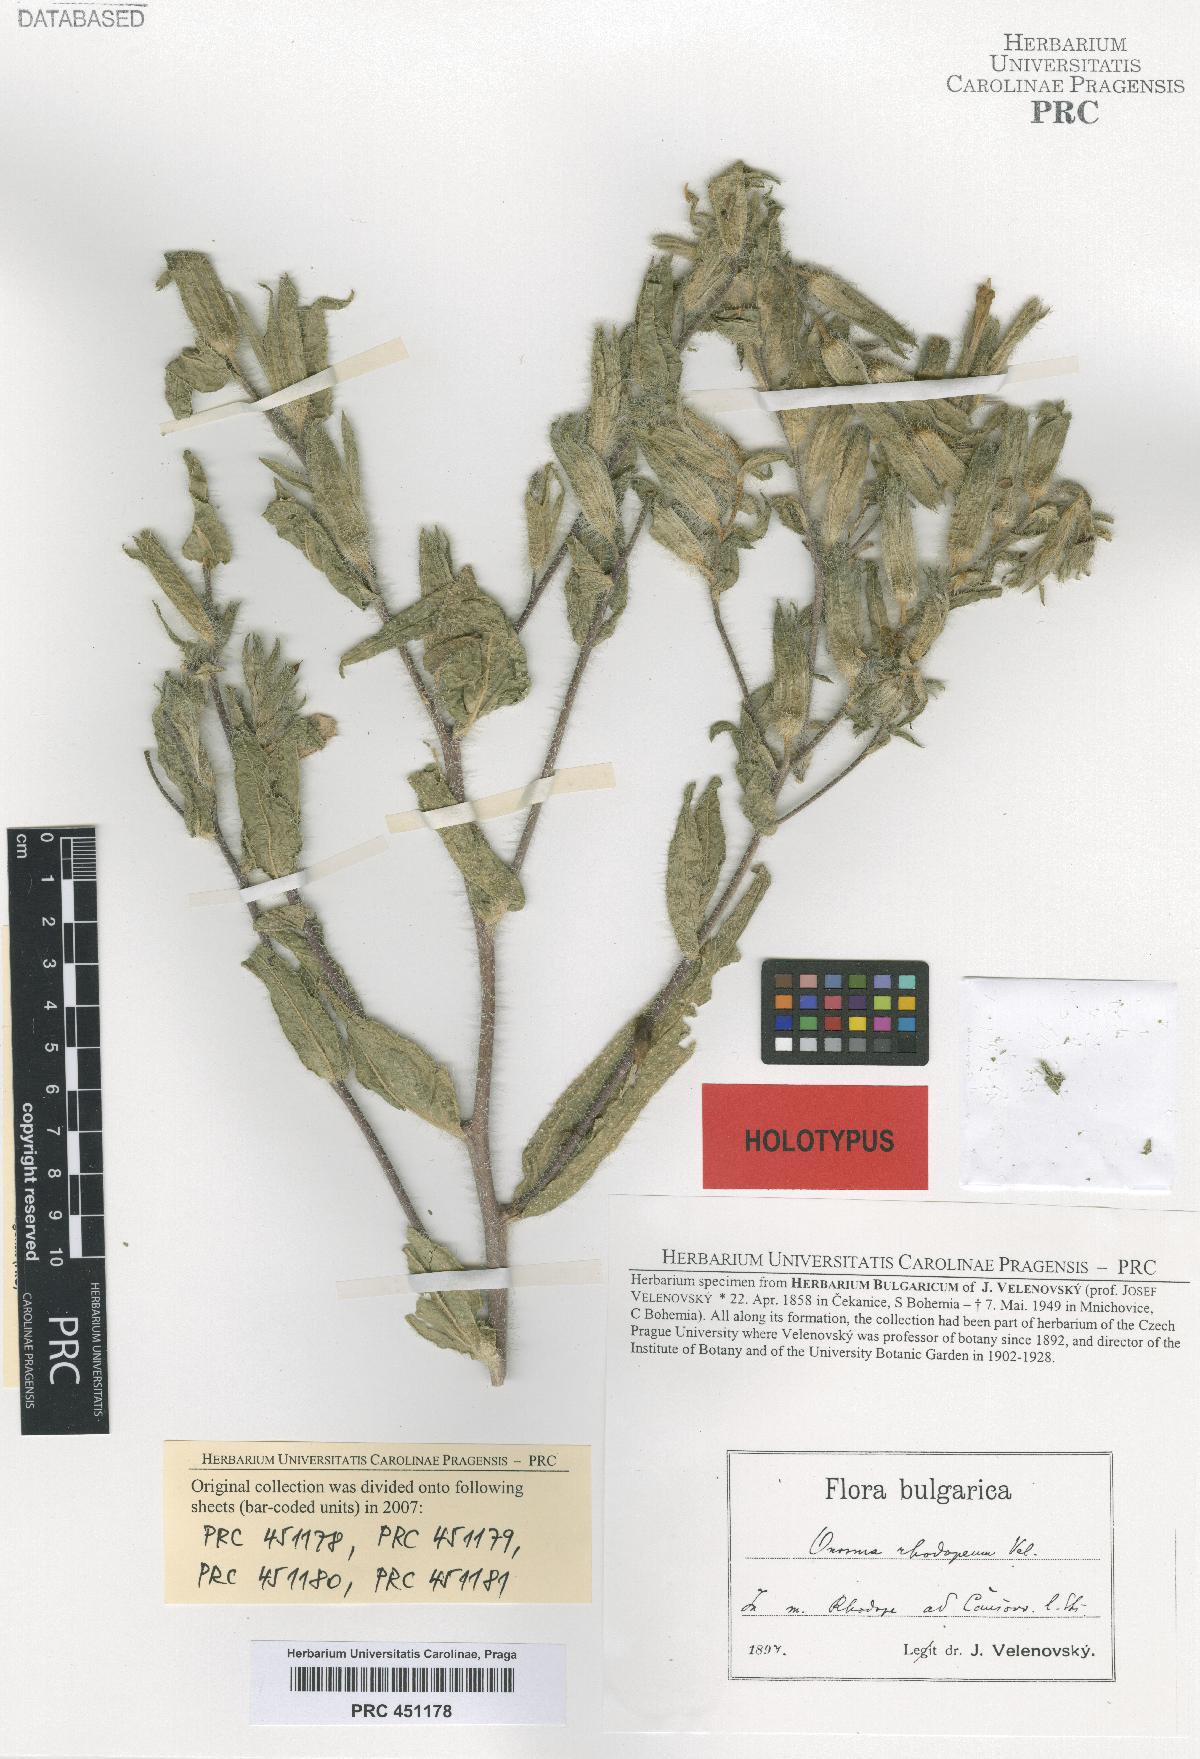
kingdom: Plantae
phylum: Tracheophyta
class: Magnoliopsida
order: Boraginales
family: Boraginaceae
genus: Onosma
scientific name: Onosma visianii
